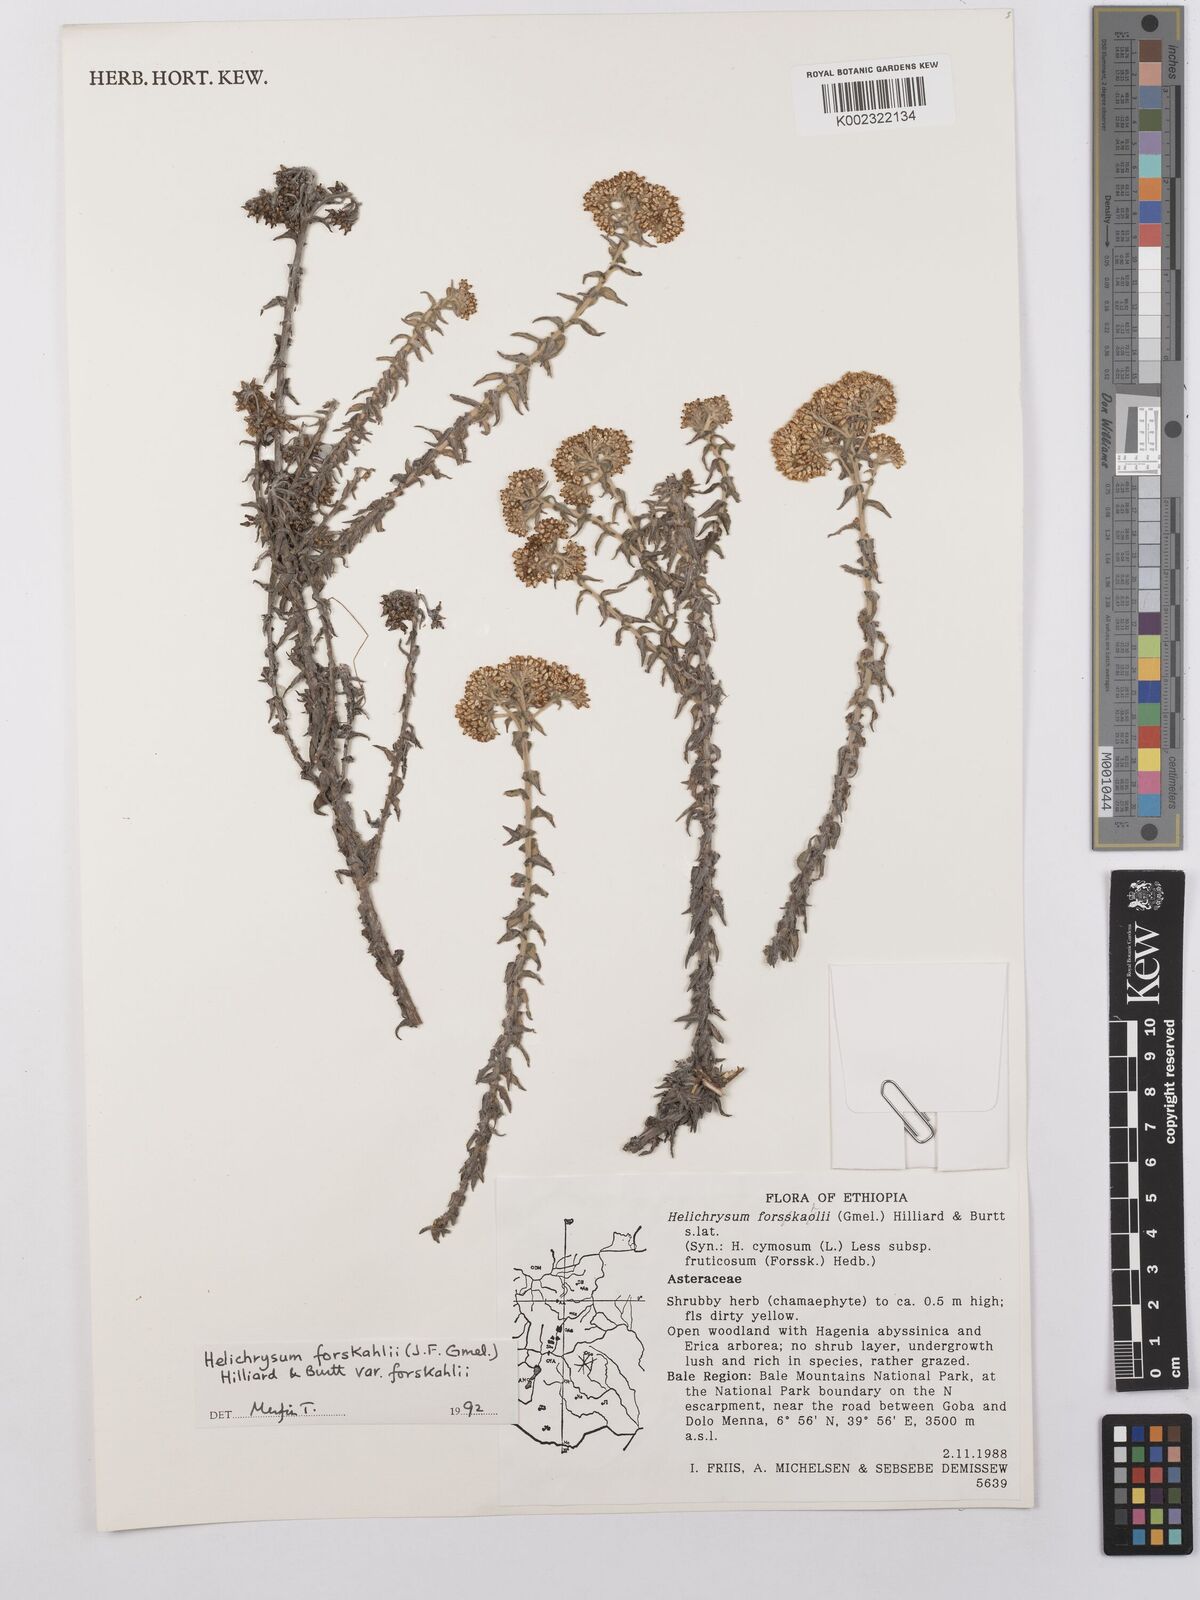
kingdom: Plantae
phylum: Tracheophyta
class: Magnoliopsida
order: Asterales
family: Asteraceae
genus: Helichrysum
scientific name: Helichrysum forskahlii
